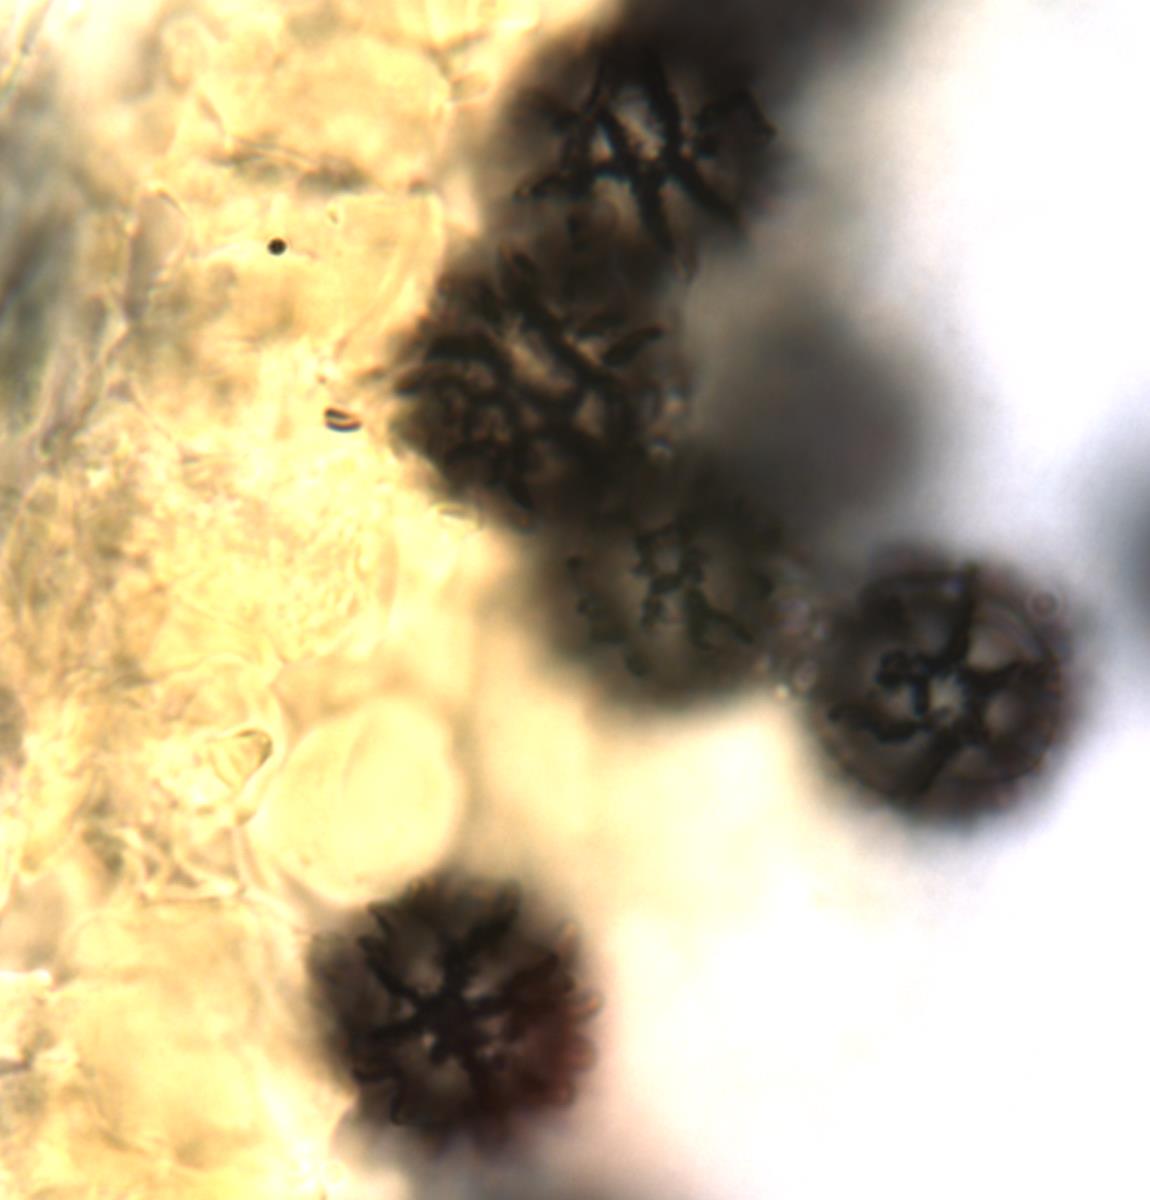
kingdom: Fungi
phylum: Basidiomycota
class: Agaricomycetes
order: Russulales
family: Russulaceae
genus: Russula
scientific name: Russula korystospora
